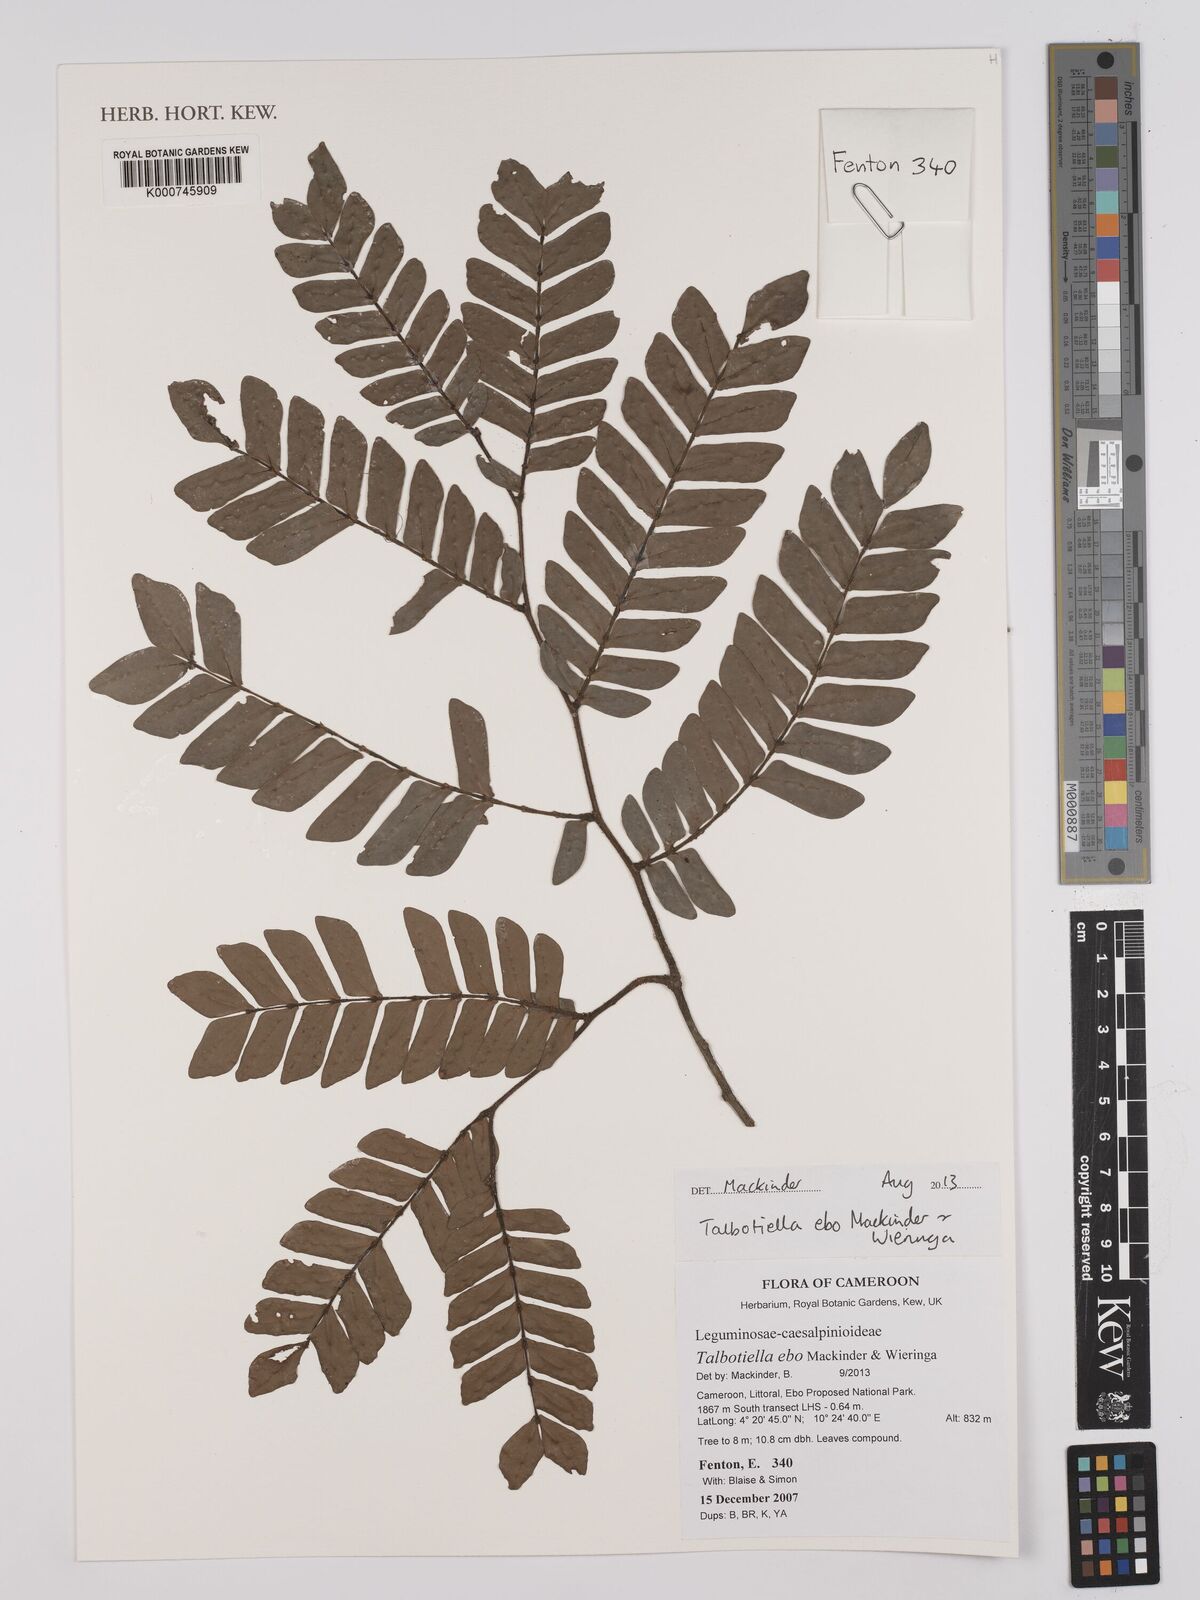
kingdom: Plantae
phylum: Tracheophyta
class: Magnoliopsida
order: Fabales
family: Fabaceae
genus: Talbotiella
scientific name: Talbotiella ebo
